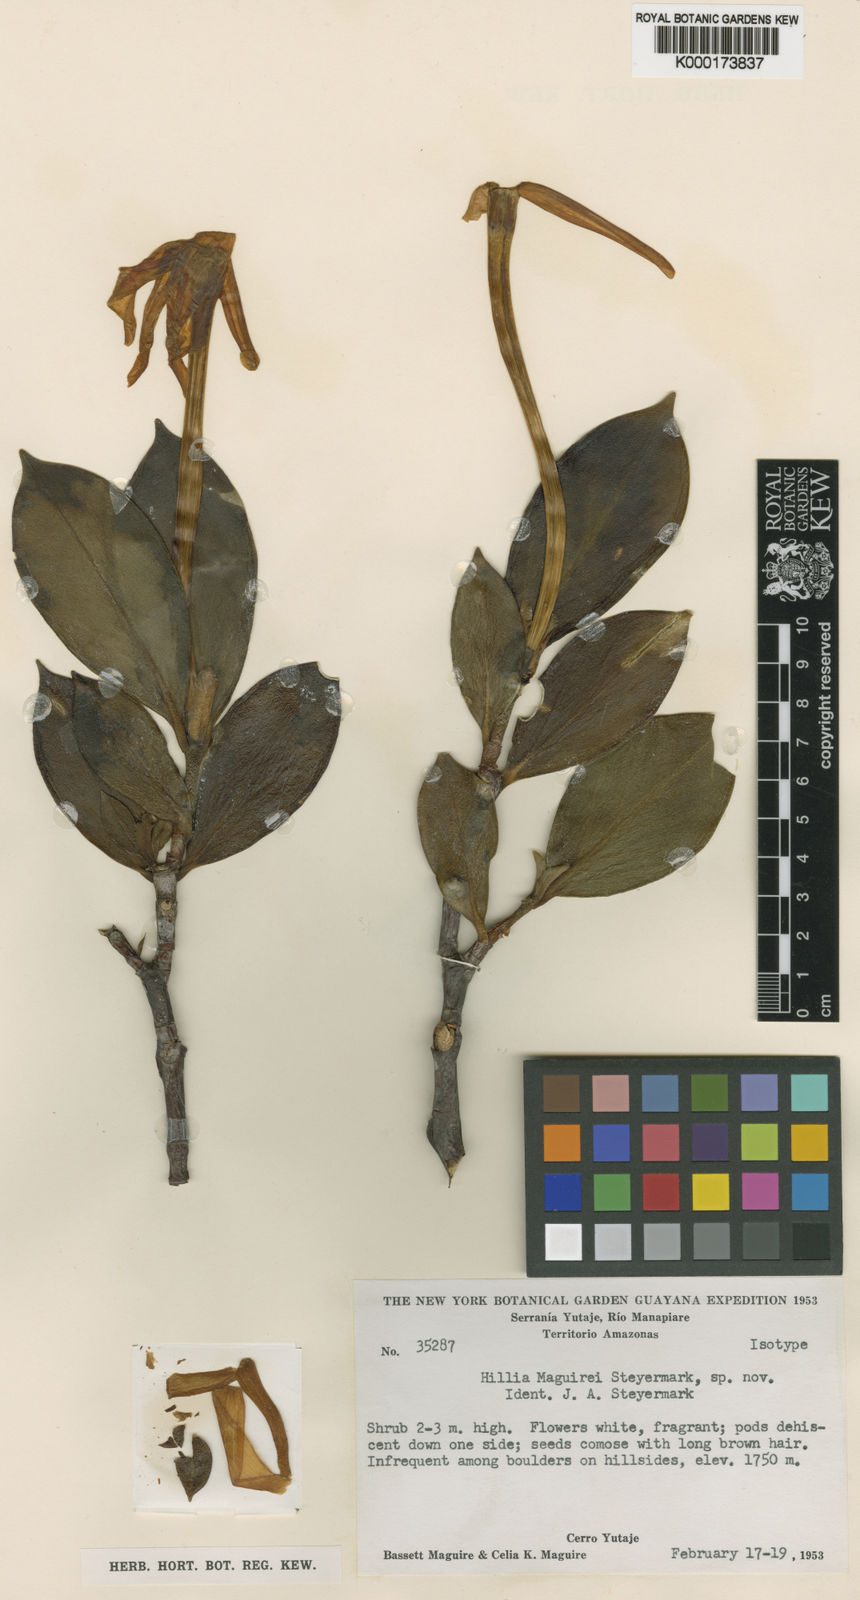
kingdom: Plantae
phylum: Tracheophyta
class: Magnoliopsida
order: Gentianales
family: Rubiaceae
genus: Hillia
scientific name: Hillia parasitica
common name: Morning star
